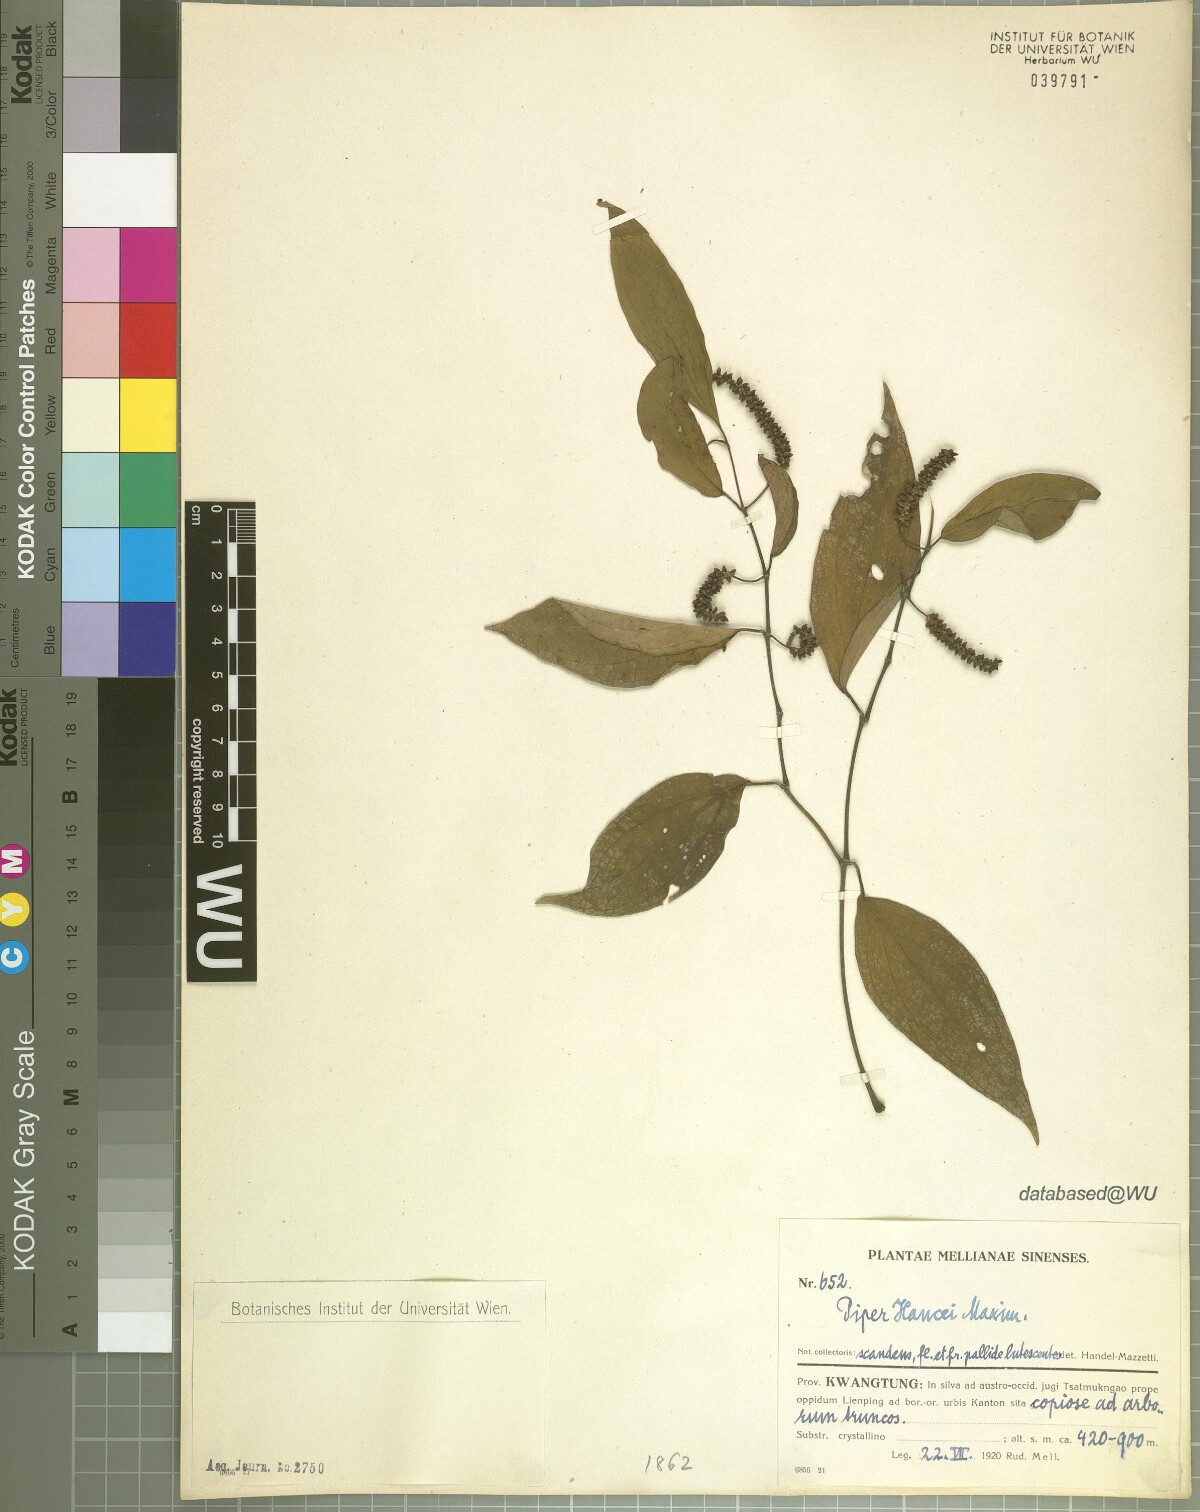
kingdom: Plantae
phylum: Tracheophyta
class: Magnoliopsida
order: Piperales
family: Piperaceae
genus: Piper
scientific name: Piper hancei
